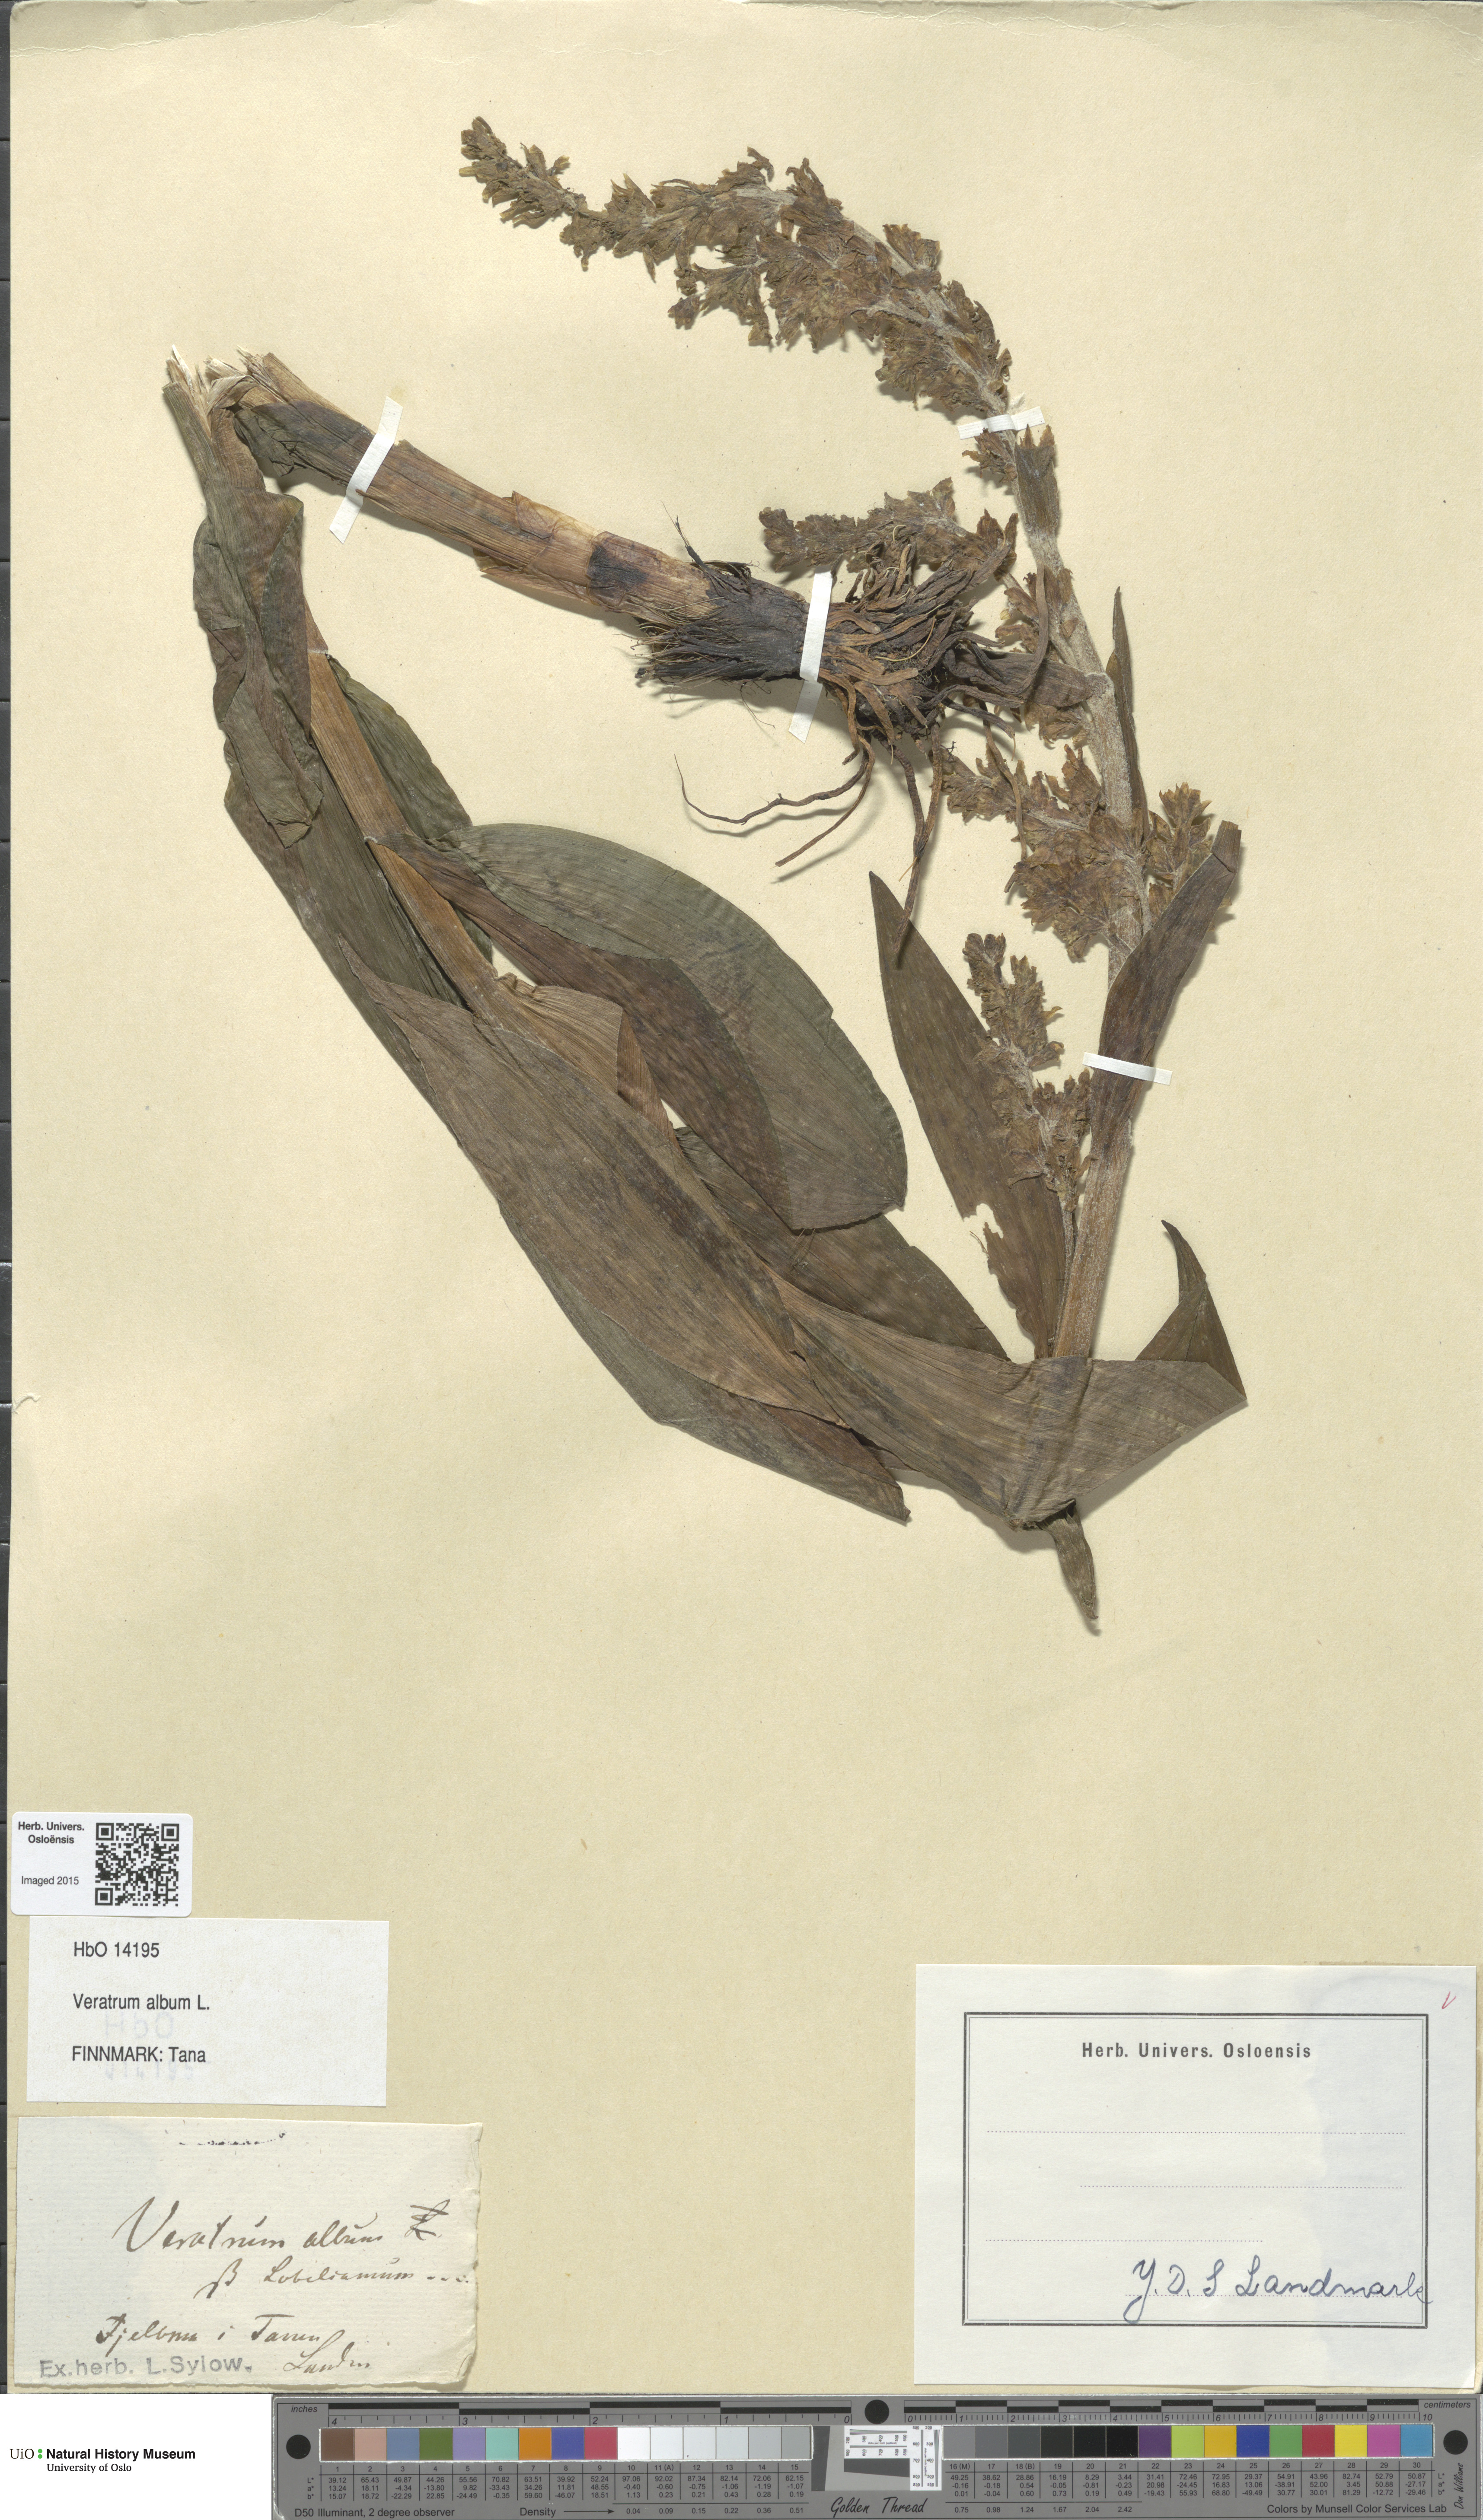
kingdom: Plantae
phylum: Tracheophyta
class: Liliopsida
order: Liliales
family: Melanthiaceae
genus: Veratrum
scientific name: Veratrum album
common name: White veratrum
